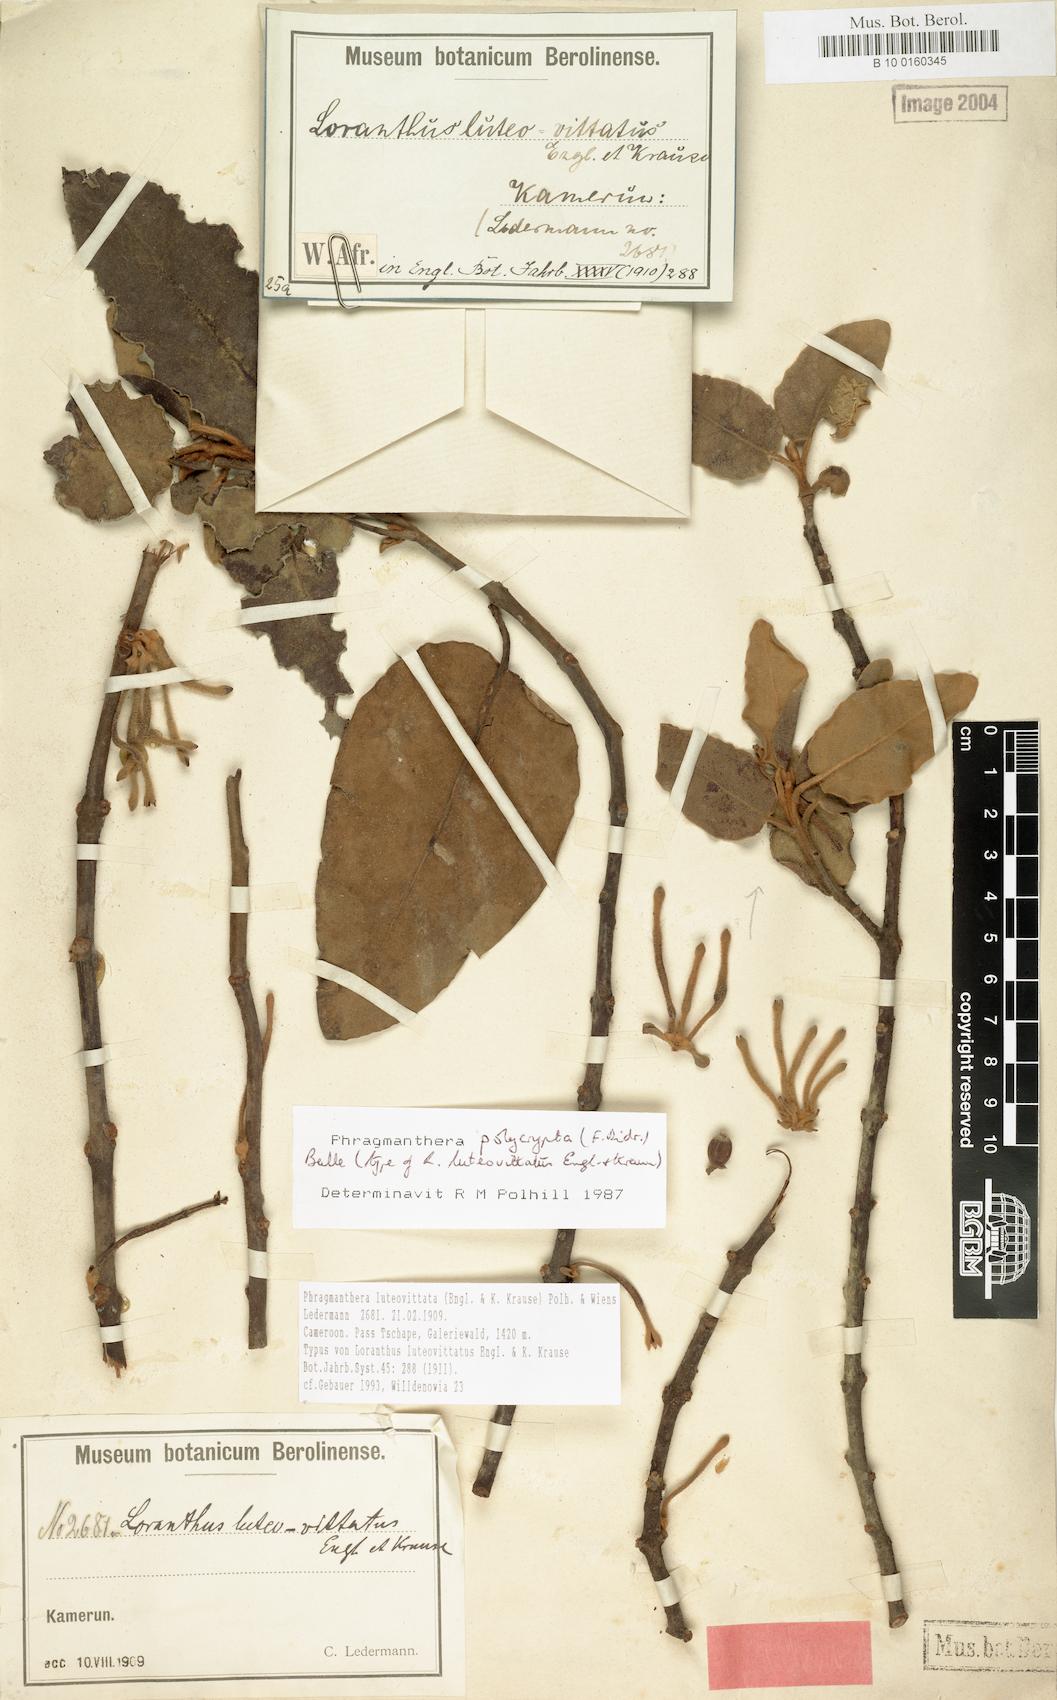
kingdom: Plantae
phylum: Tracheophyta
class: Magnoliopsida
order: Santalales
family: Loranthaceae
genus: Phragmanthera
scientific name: Phragmanthera luteovittata
